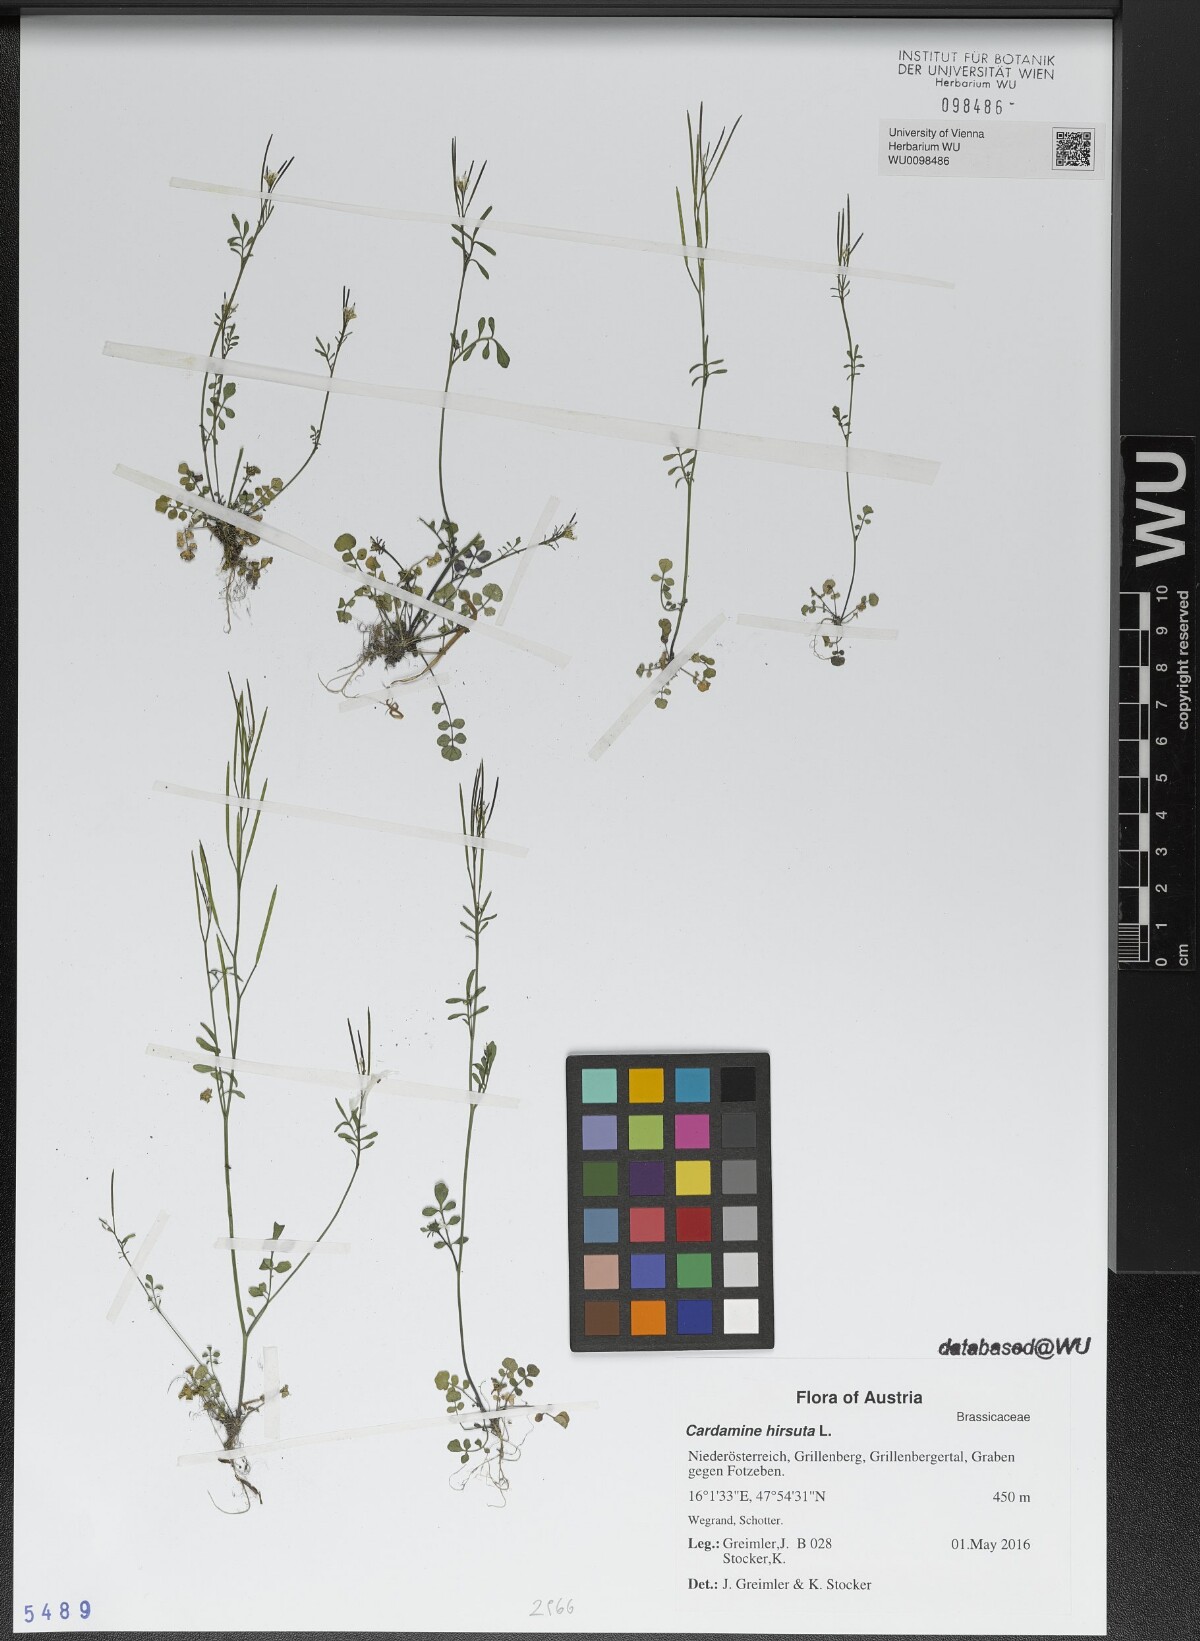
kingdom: Plantae
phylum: Tracheophyta
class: Magnoliopsida
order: Brassicales
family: Brassicaceae
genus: Cardamine
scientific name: Cardamine hirsuta
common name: Hairy bittercress
